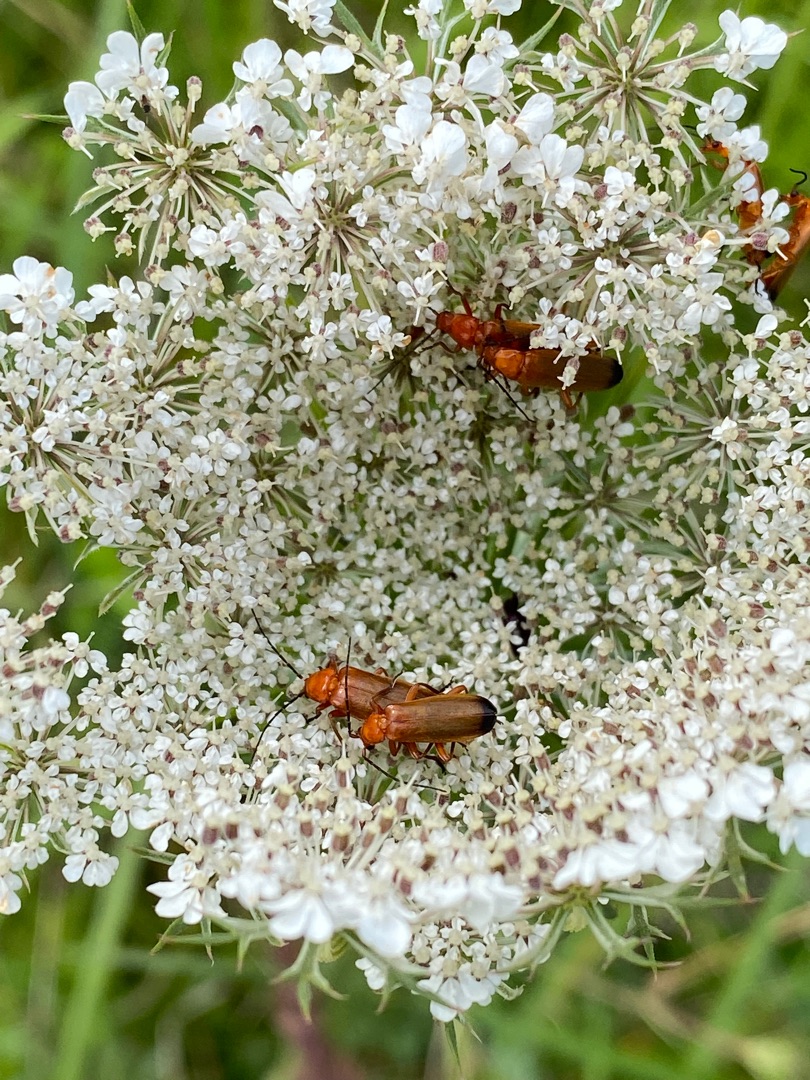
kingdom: Animalia
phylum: Arthropoda
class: Insecta
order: Coleoptera
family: Cantharidae
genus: Rhagonycha
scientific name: Rhagonycha fulva
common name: Præstebille
